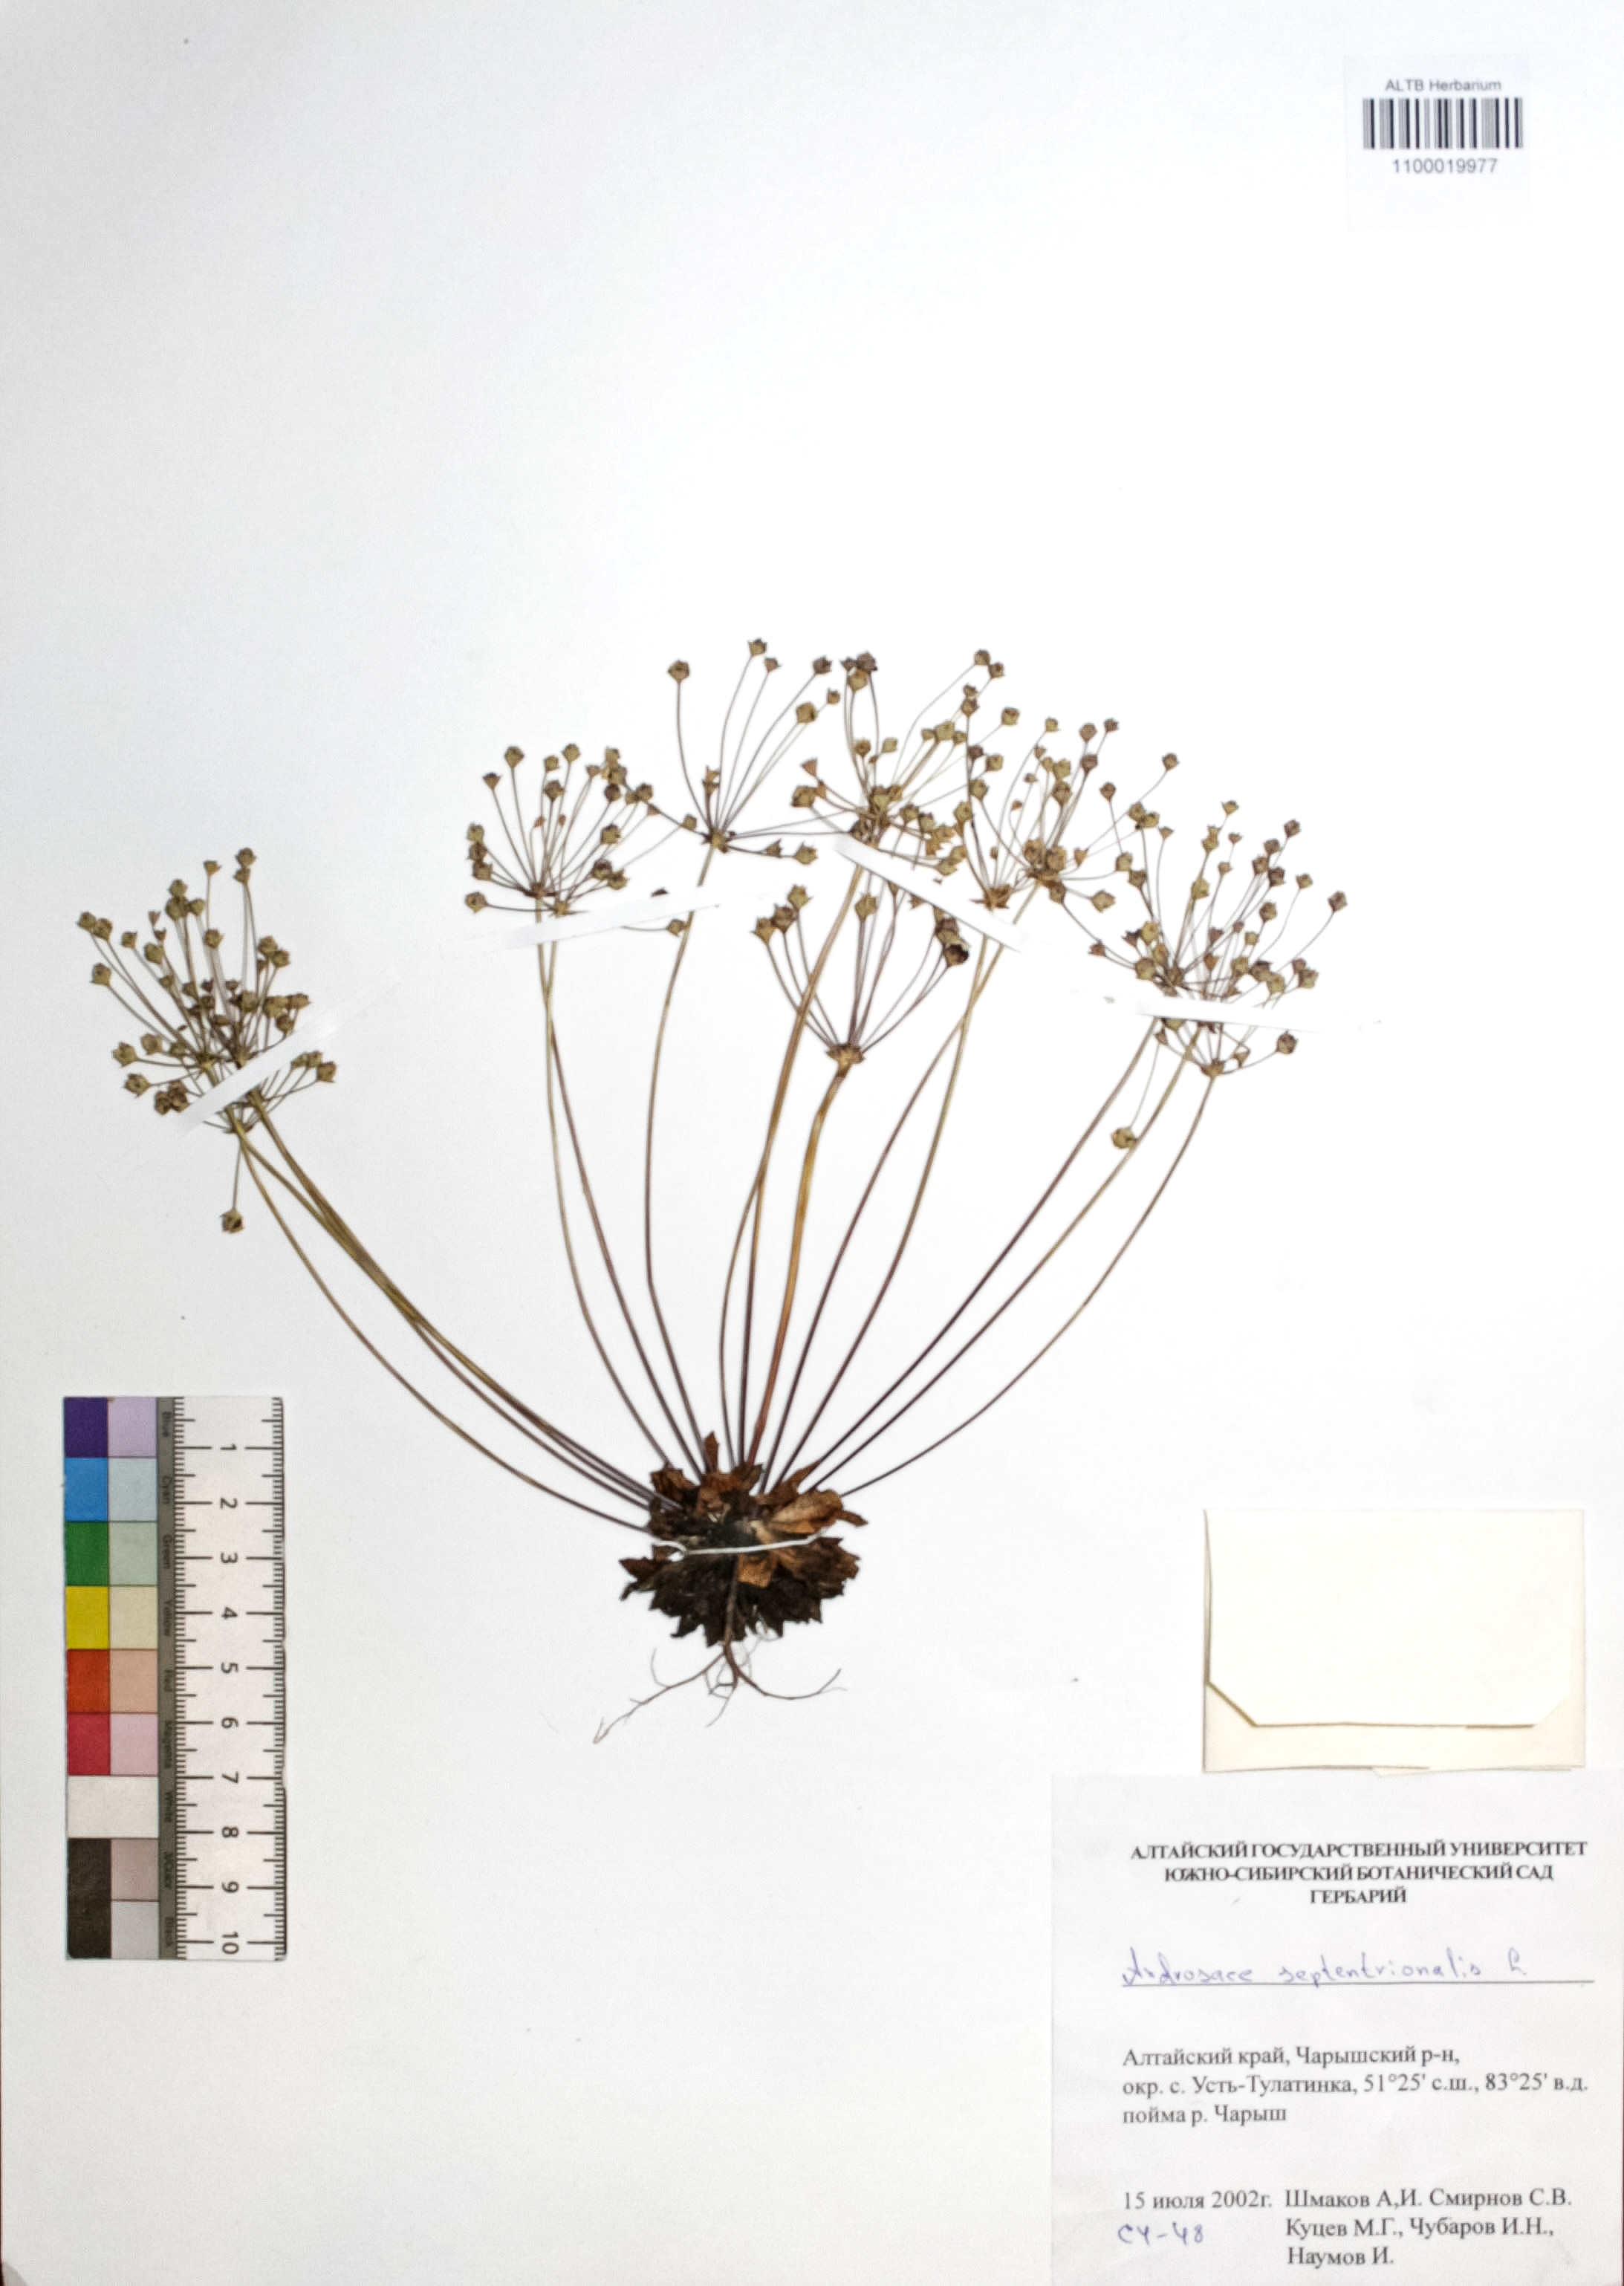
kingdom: Plantae
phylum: Tracheophyta
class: Magnoliopsida
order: Ericales
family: Primulaceae
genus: Androsace
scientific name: Androsace septentrionalis
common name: Hairy northern fairy-candelabra
